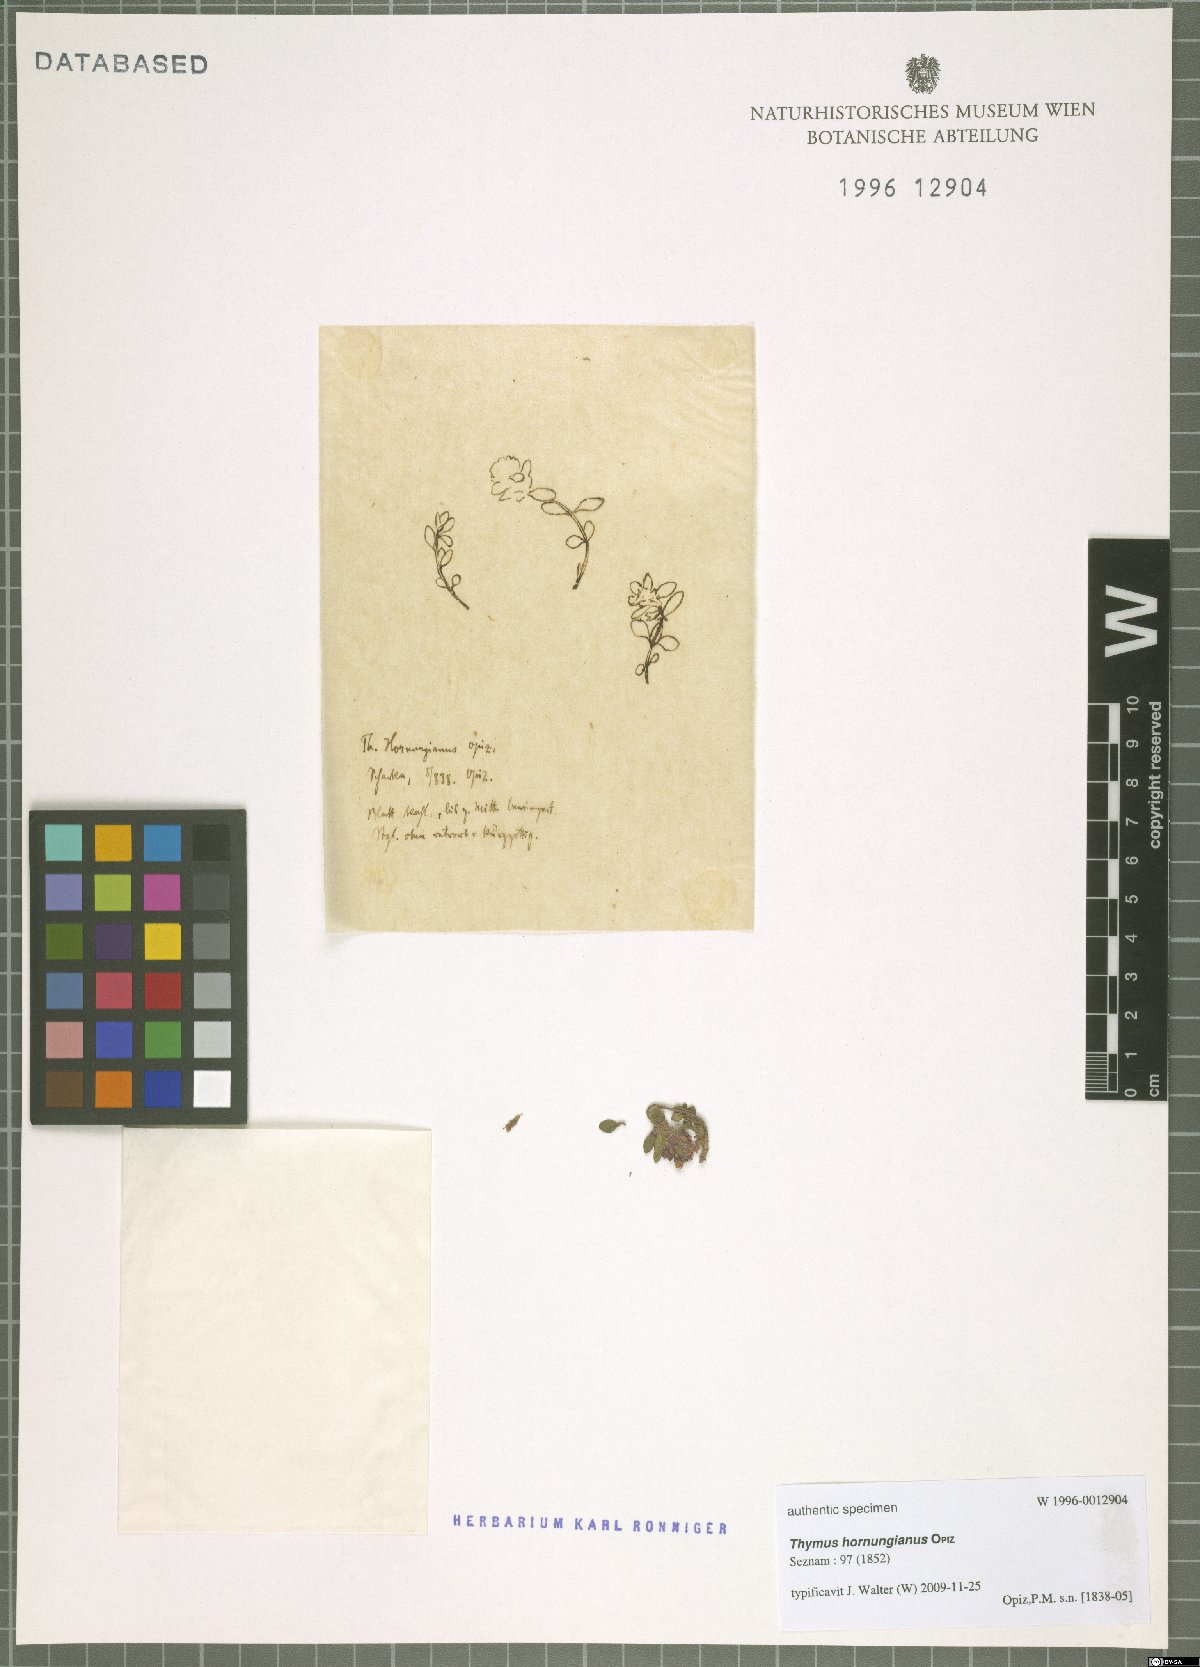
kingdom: Plantae
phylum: Tracheophyta
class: Magnoliopsida
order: Lamiales
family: Lamiaceae
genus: Thymus
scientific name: Thymus serpyllum
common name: Breckland thyme
